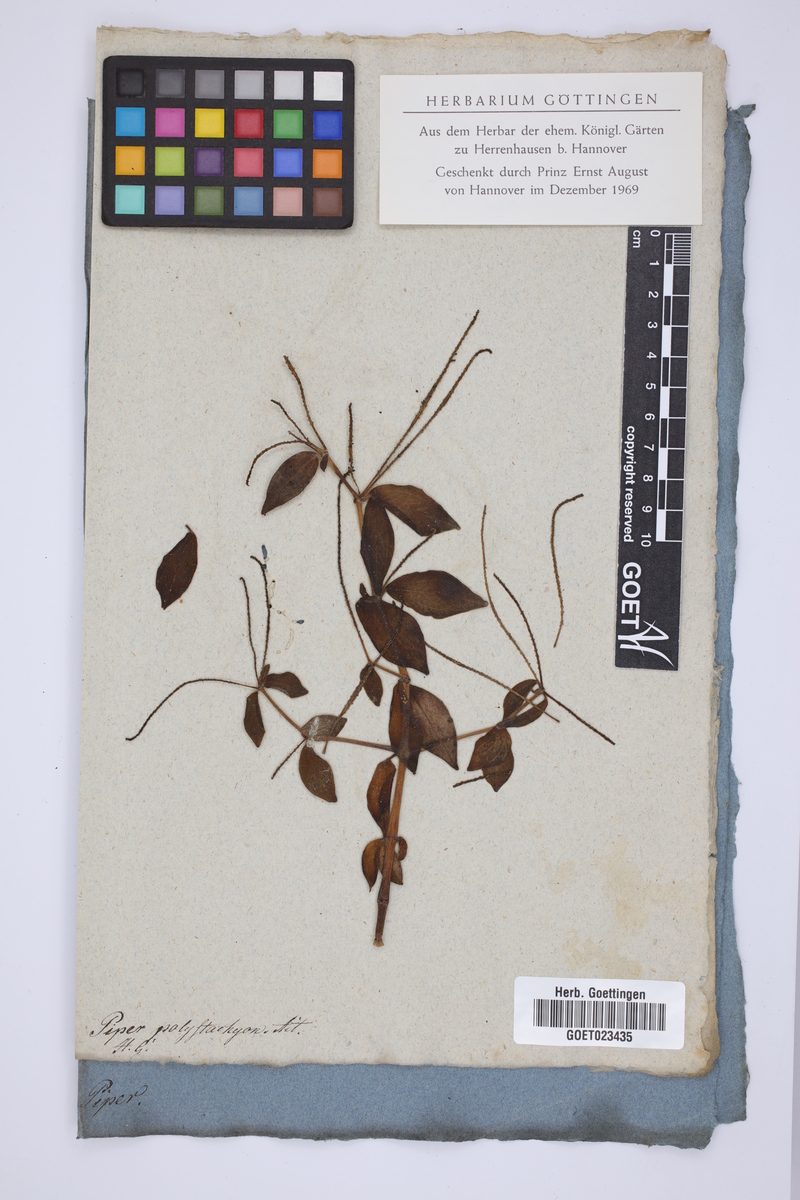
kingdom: Plantae
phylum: Tracheophyta
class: Magnoliopsida
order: Piperales
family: Piperaceae
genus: Peperomia
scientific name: Peperomia polystachya
